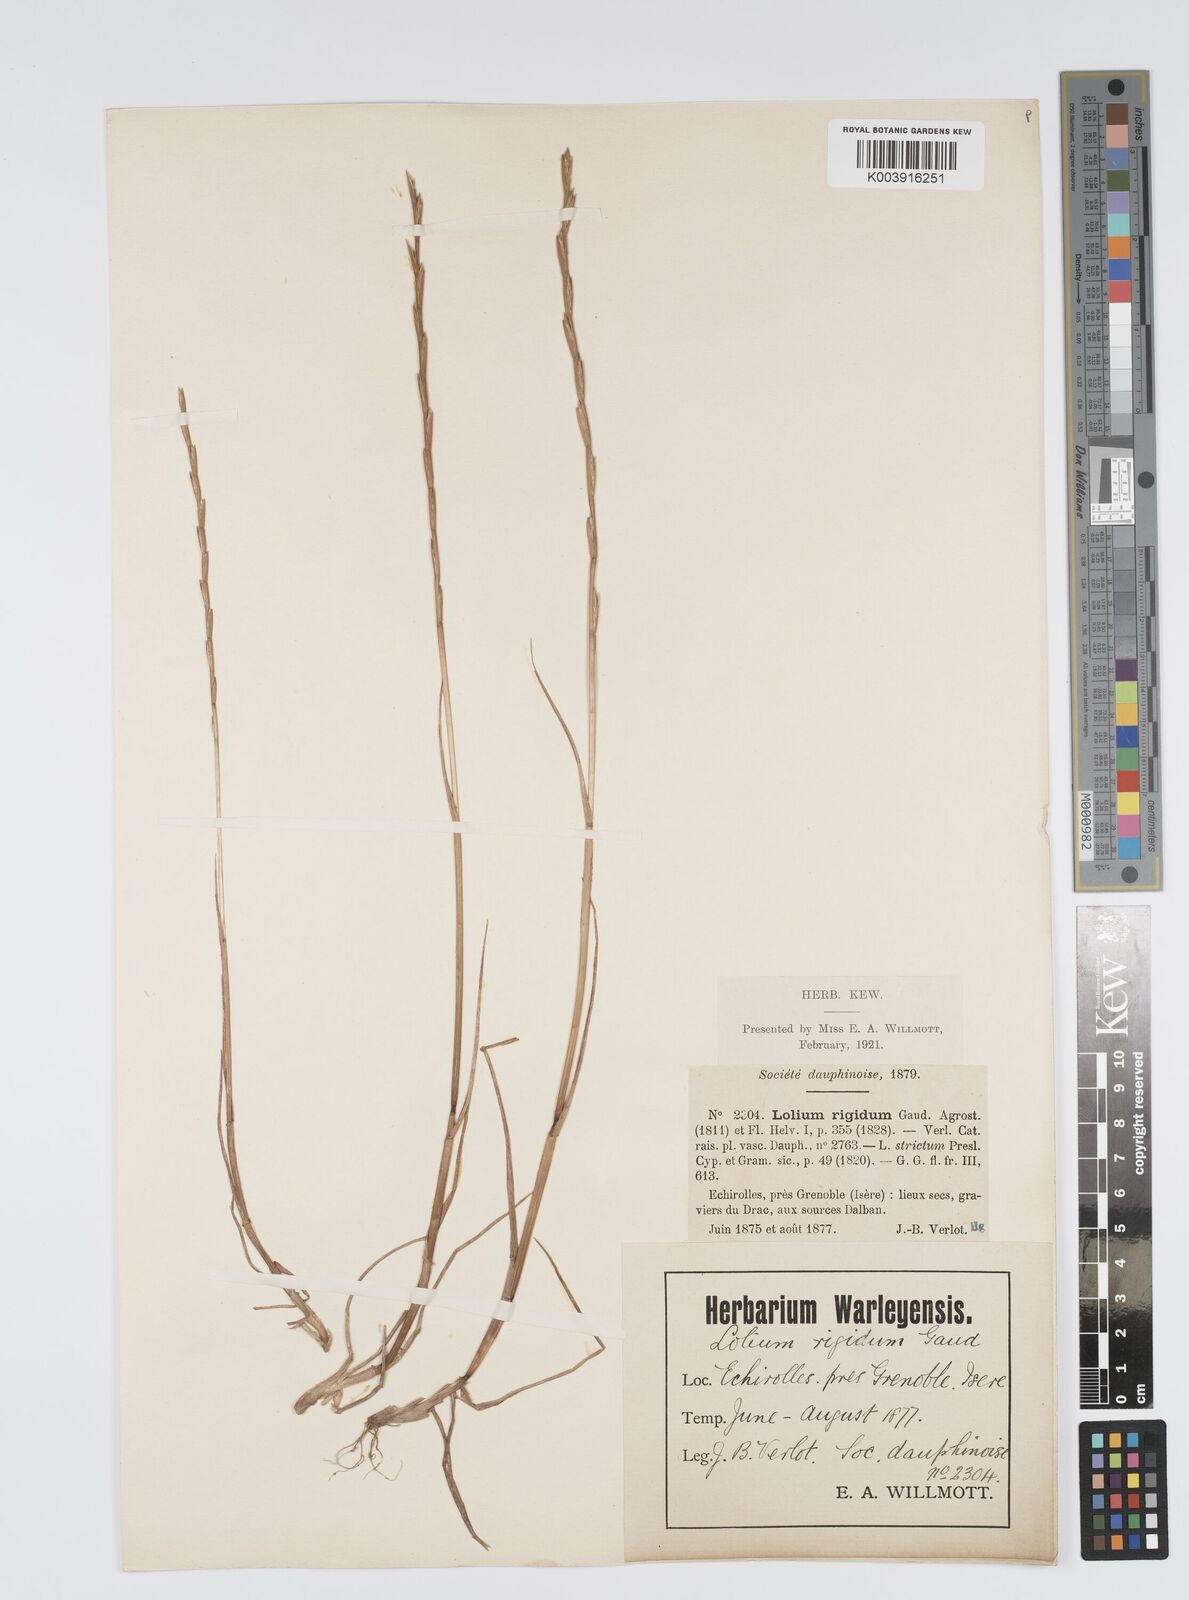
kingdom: Plantae
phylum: Tracheophyta
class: Liliopsida
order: Poales
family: Poaceae
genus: Lolium
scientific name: Lolium rigidum
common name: Wimmera ryegrass
